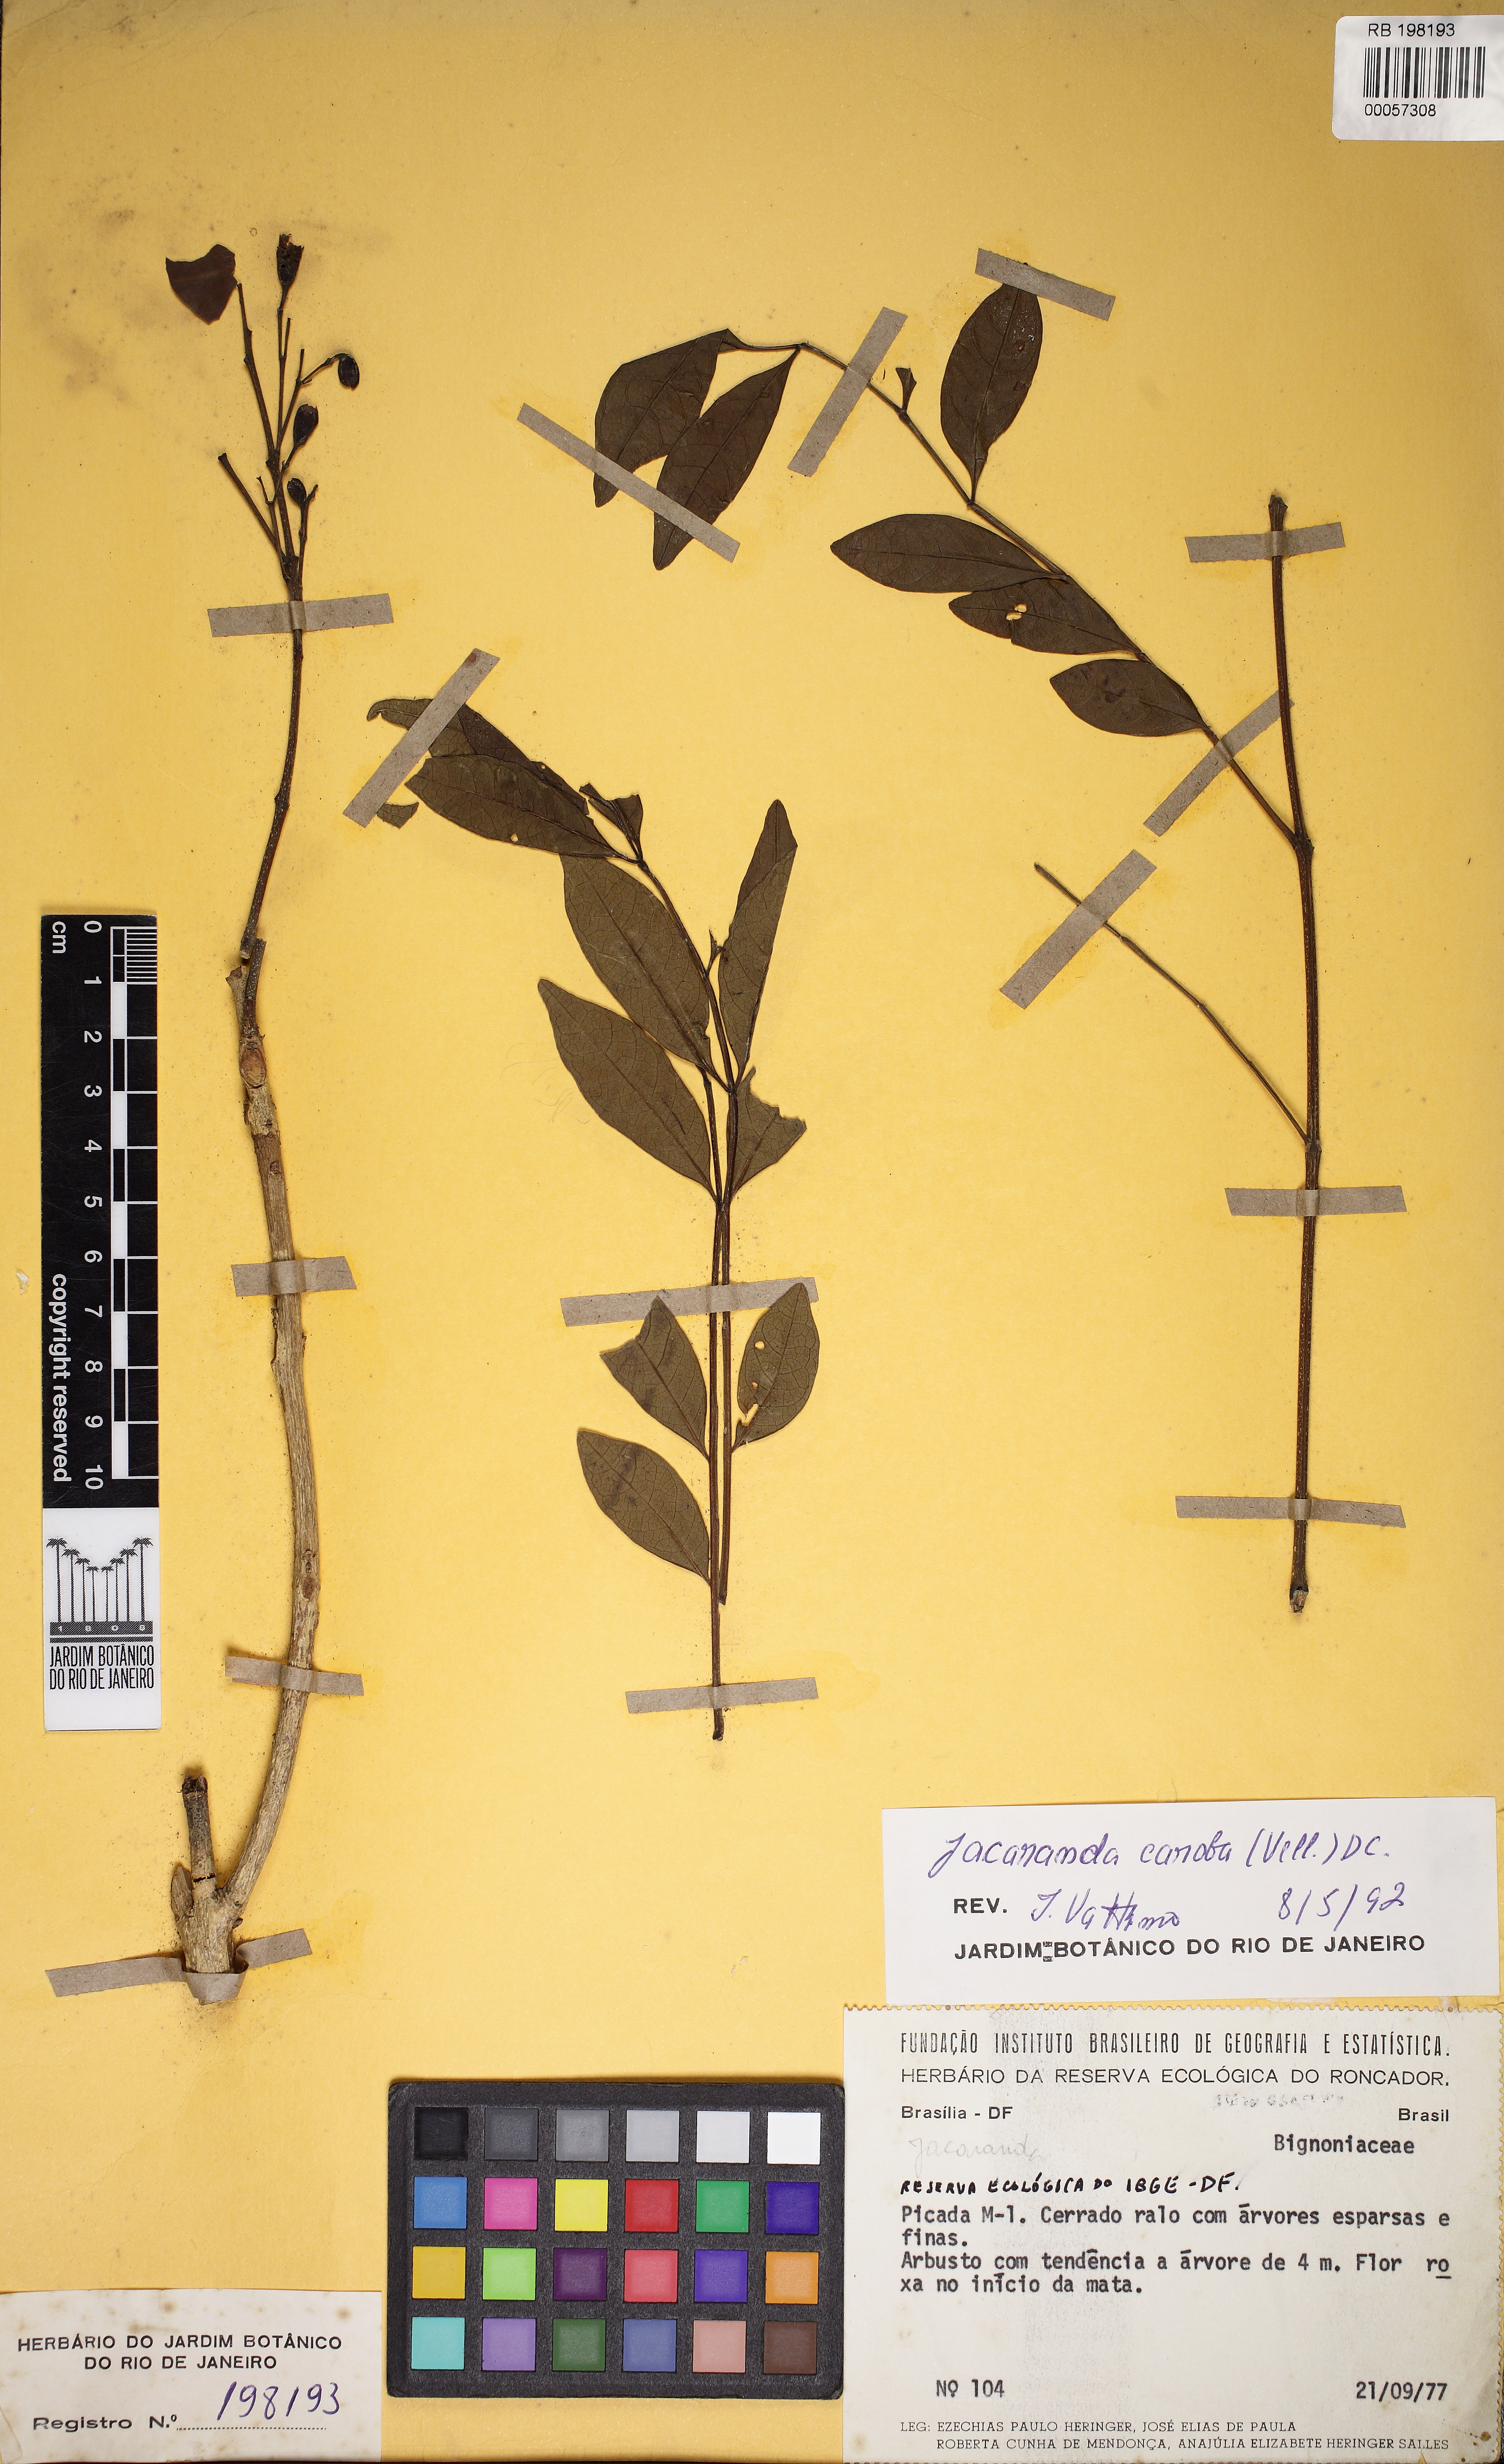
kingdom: Plantae
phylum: Tracheophyta
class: Magnoliopsida
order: Lamiales
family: Bignoniaceae
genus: Jacaranda
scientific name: Jacaranda caroba
